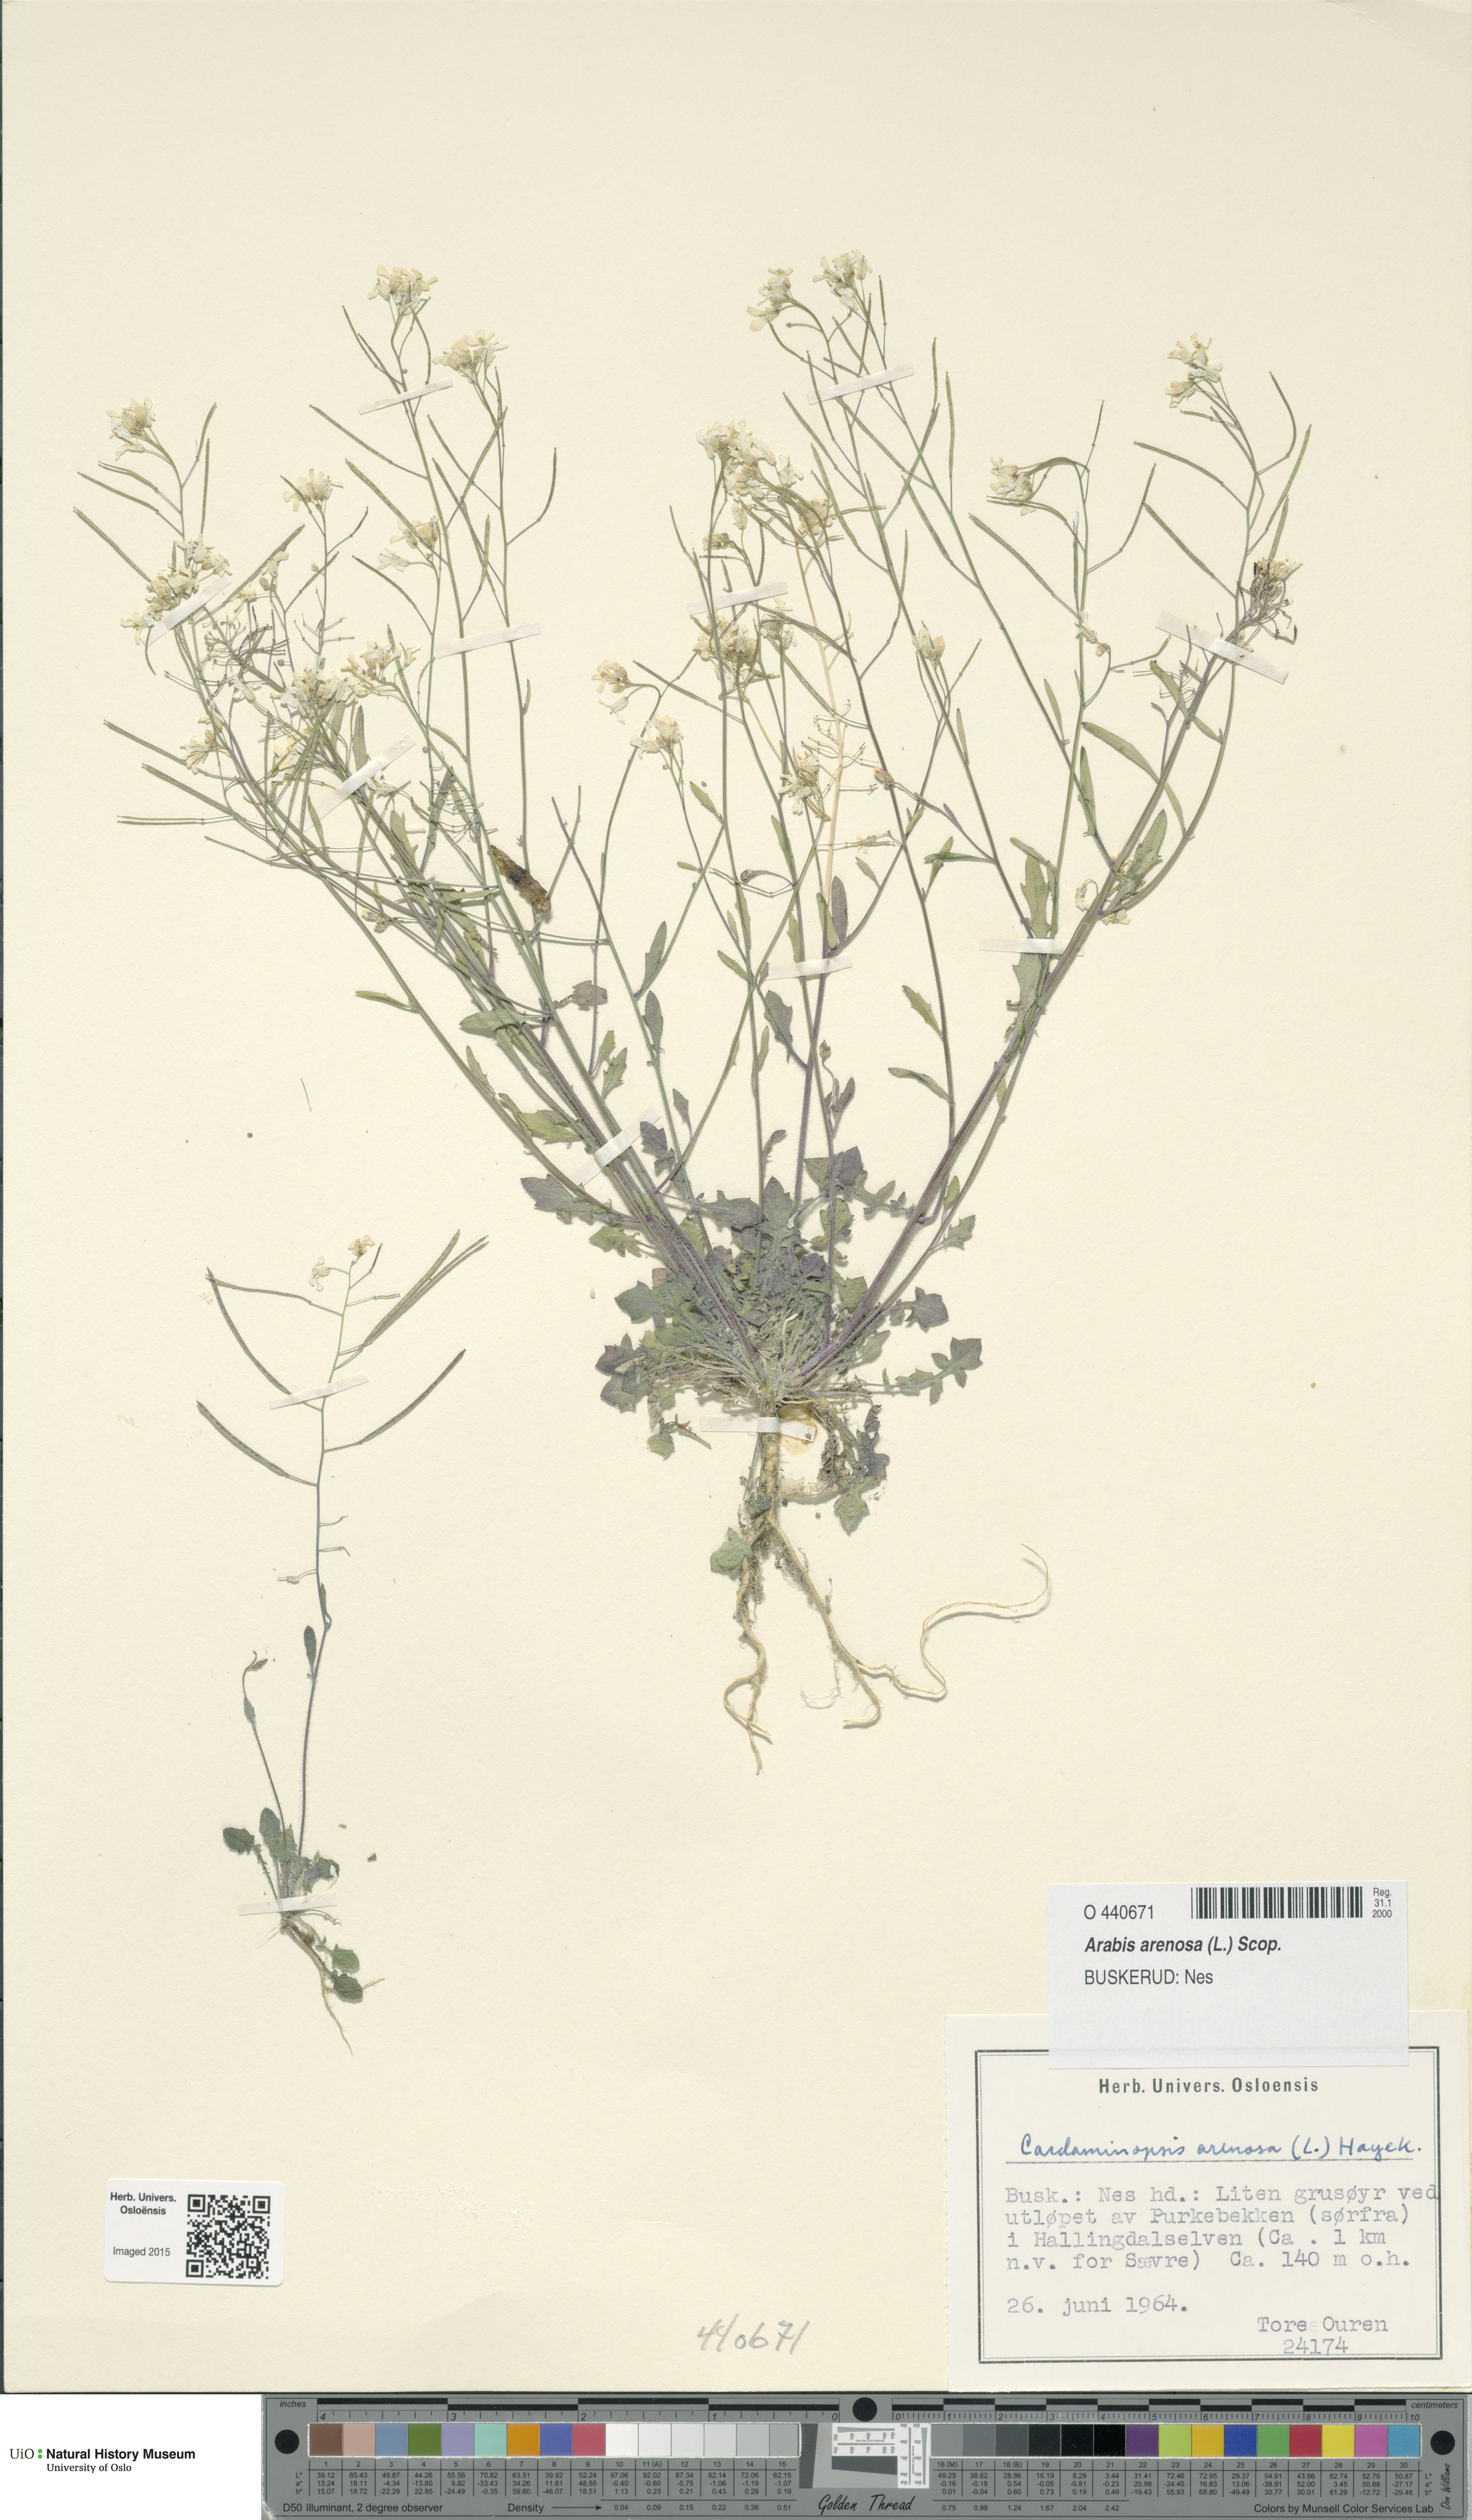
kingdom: Plantae
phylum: Tracheophyta
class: Magnoliopsida
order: Brassicales
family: Brassicaceae
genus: Arabidopsis
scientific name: Arabidopsis arenosa
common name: Sand rock-cress
